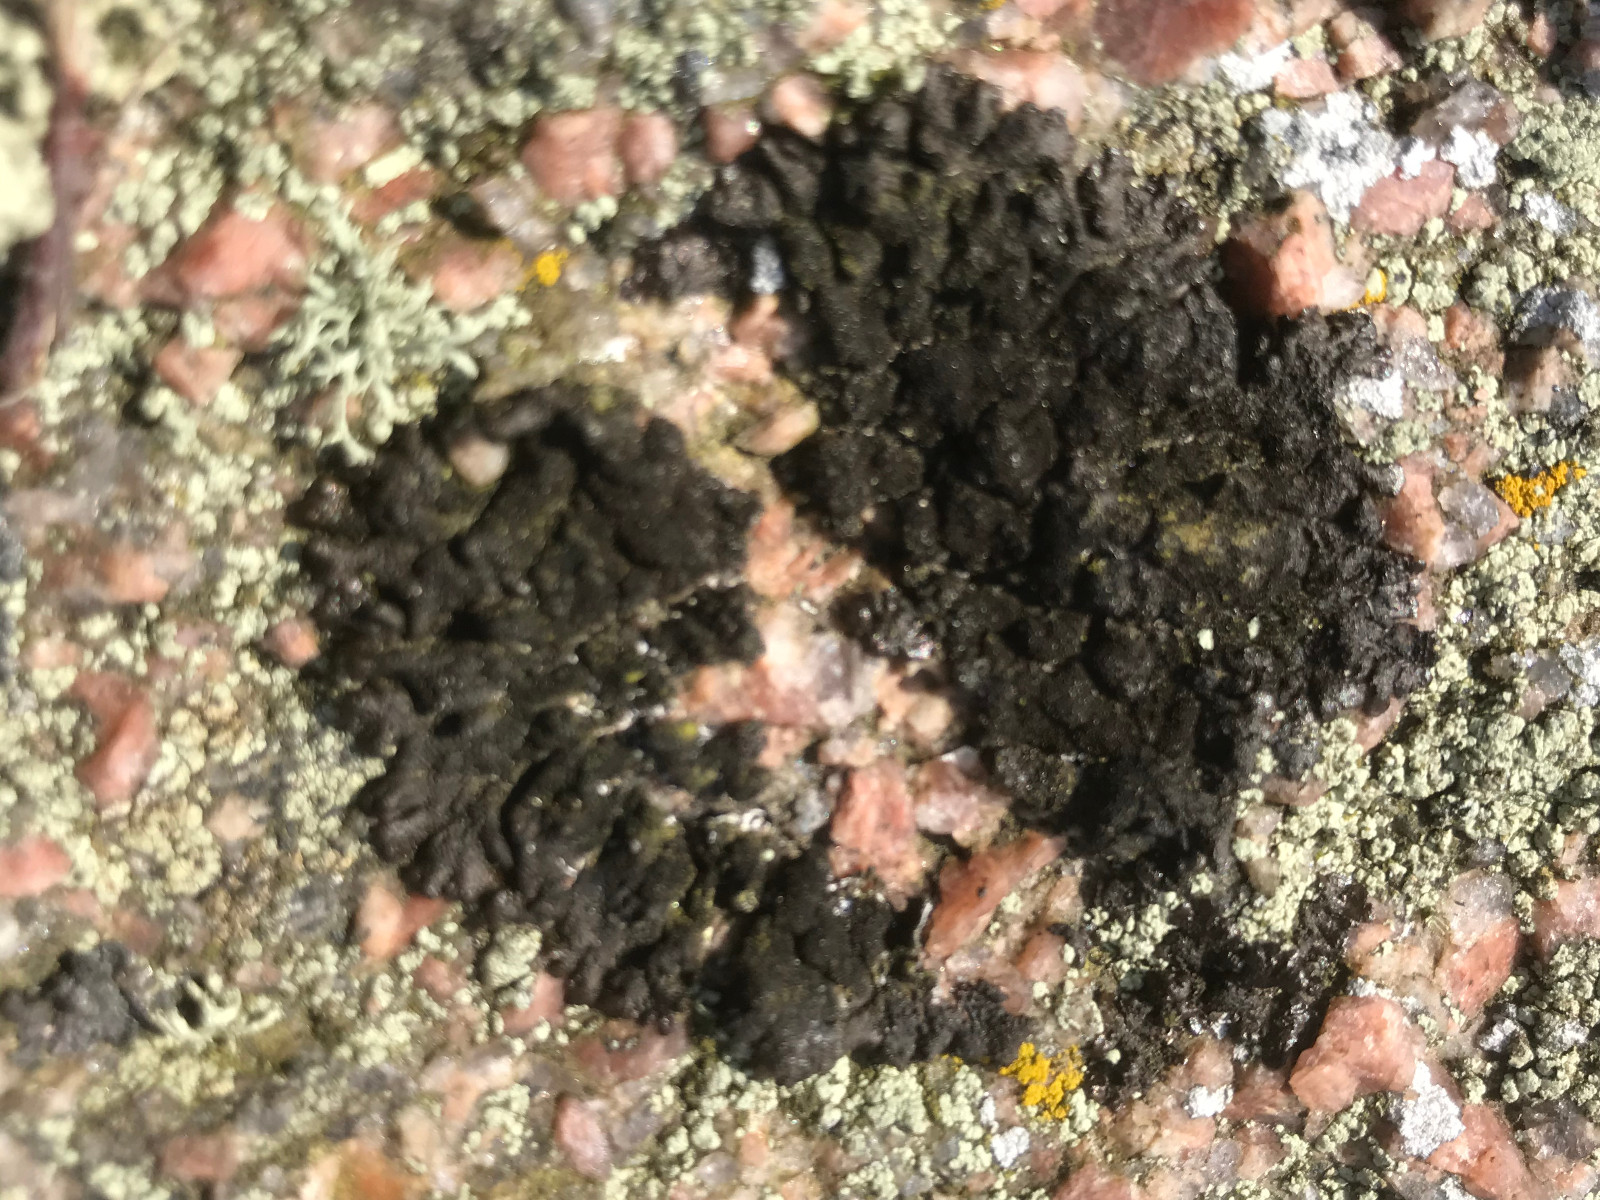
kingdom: Fungi
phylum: Ascomycota
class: Lecanoromycetes
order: Lecanorales
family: Parmeliaceae
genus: Melanelixia
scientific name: Melanelixia fuliginosa
